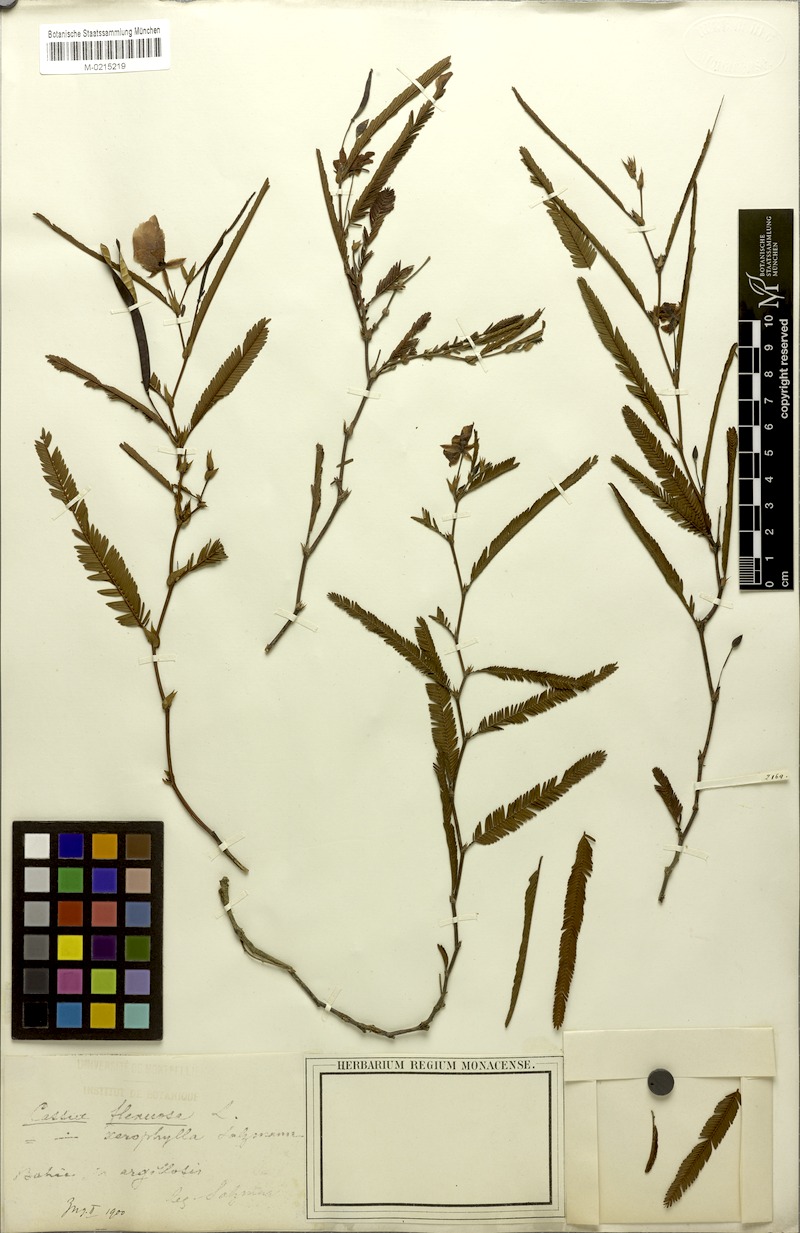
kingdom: Plantae
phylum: Tracheophyta
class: Magnoliopsida
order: Fabales
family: Fabaceae
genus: Chamaecrista
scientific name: Chamaecrista flexuosa
